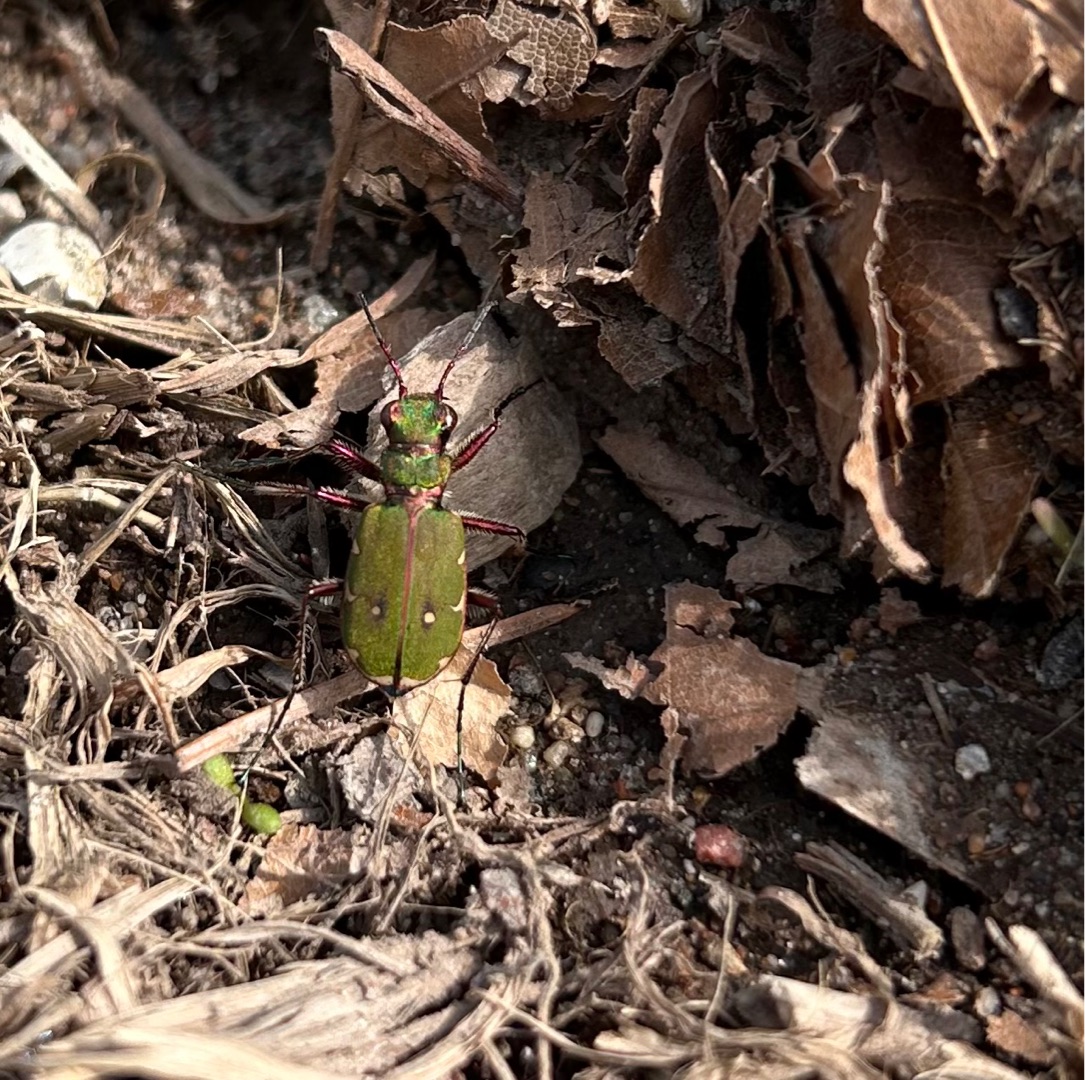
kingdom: Animalia
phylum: Arthropoda
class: Insecta
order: Coleoptera
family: Carabidae
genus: Cicindela
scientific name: Cicindela campestris
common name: Grøn sandspringer
